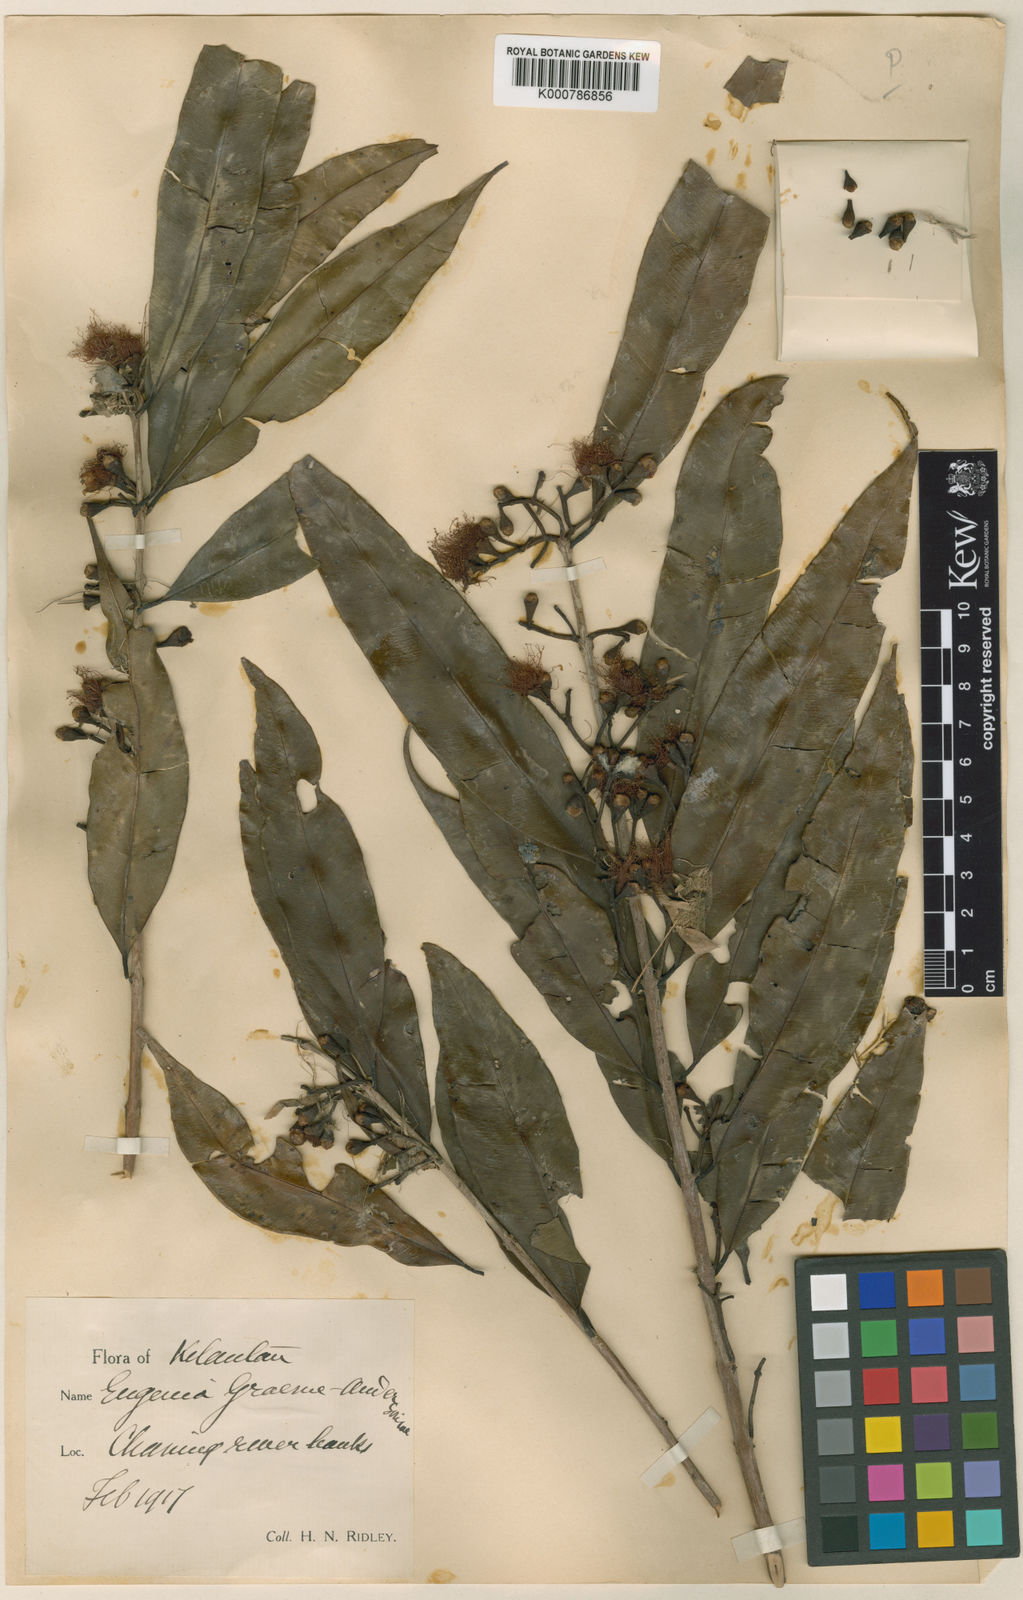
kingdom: Plantae
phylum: Tracheophyta
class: Magnoliopsida
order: Myrtales
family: Myrtaceae
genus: Syzygium
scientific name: Syzygium graeme-andersoniae
